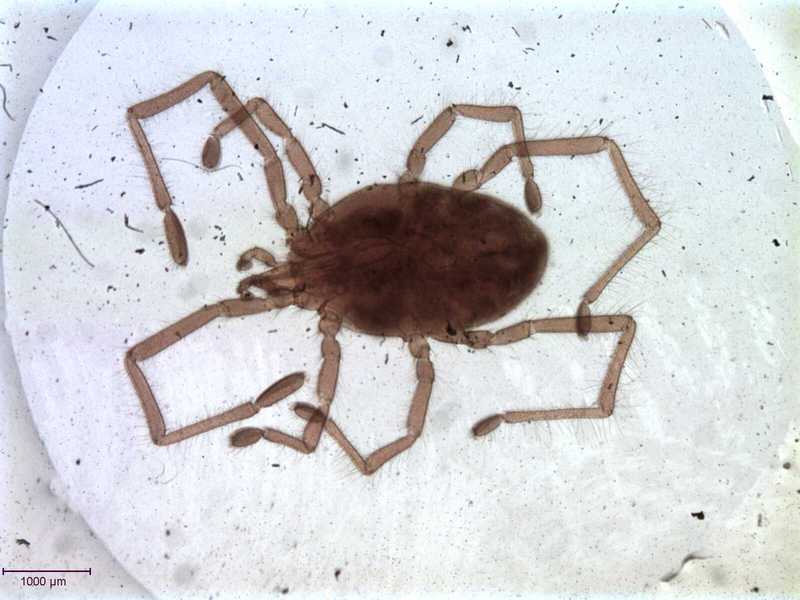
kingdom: Animalia
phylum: Arthropoda
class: Arachnida
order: Trombidiformes
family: Erythraeidae
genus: Charletonia
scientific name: Charletonia arborum
